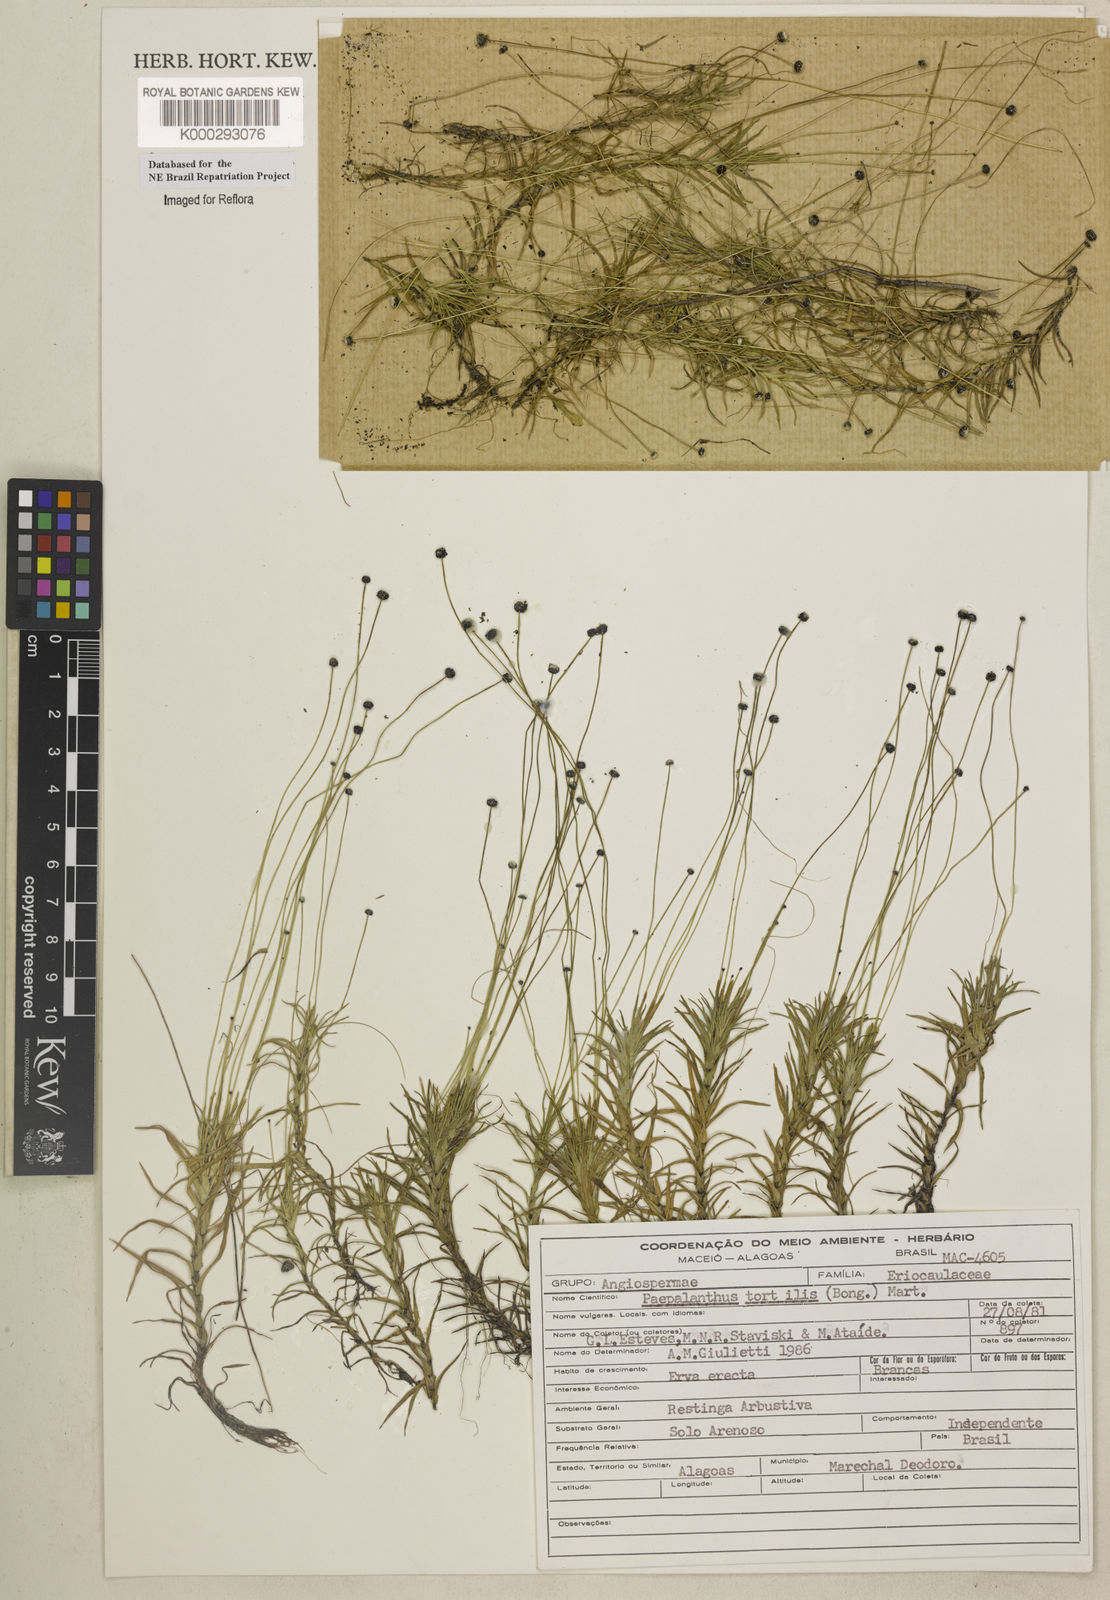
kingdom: Plantae
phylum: Tracheophyta
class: Liliopsida
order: Poales
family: Eriocaulaceae
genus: Paepalanthus
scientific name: Paepalanthus
